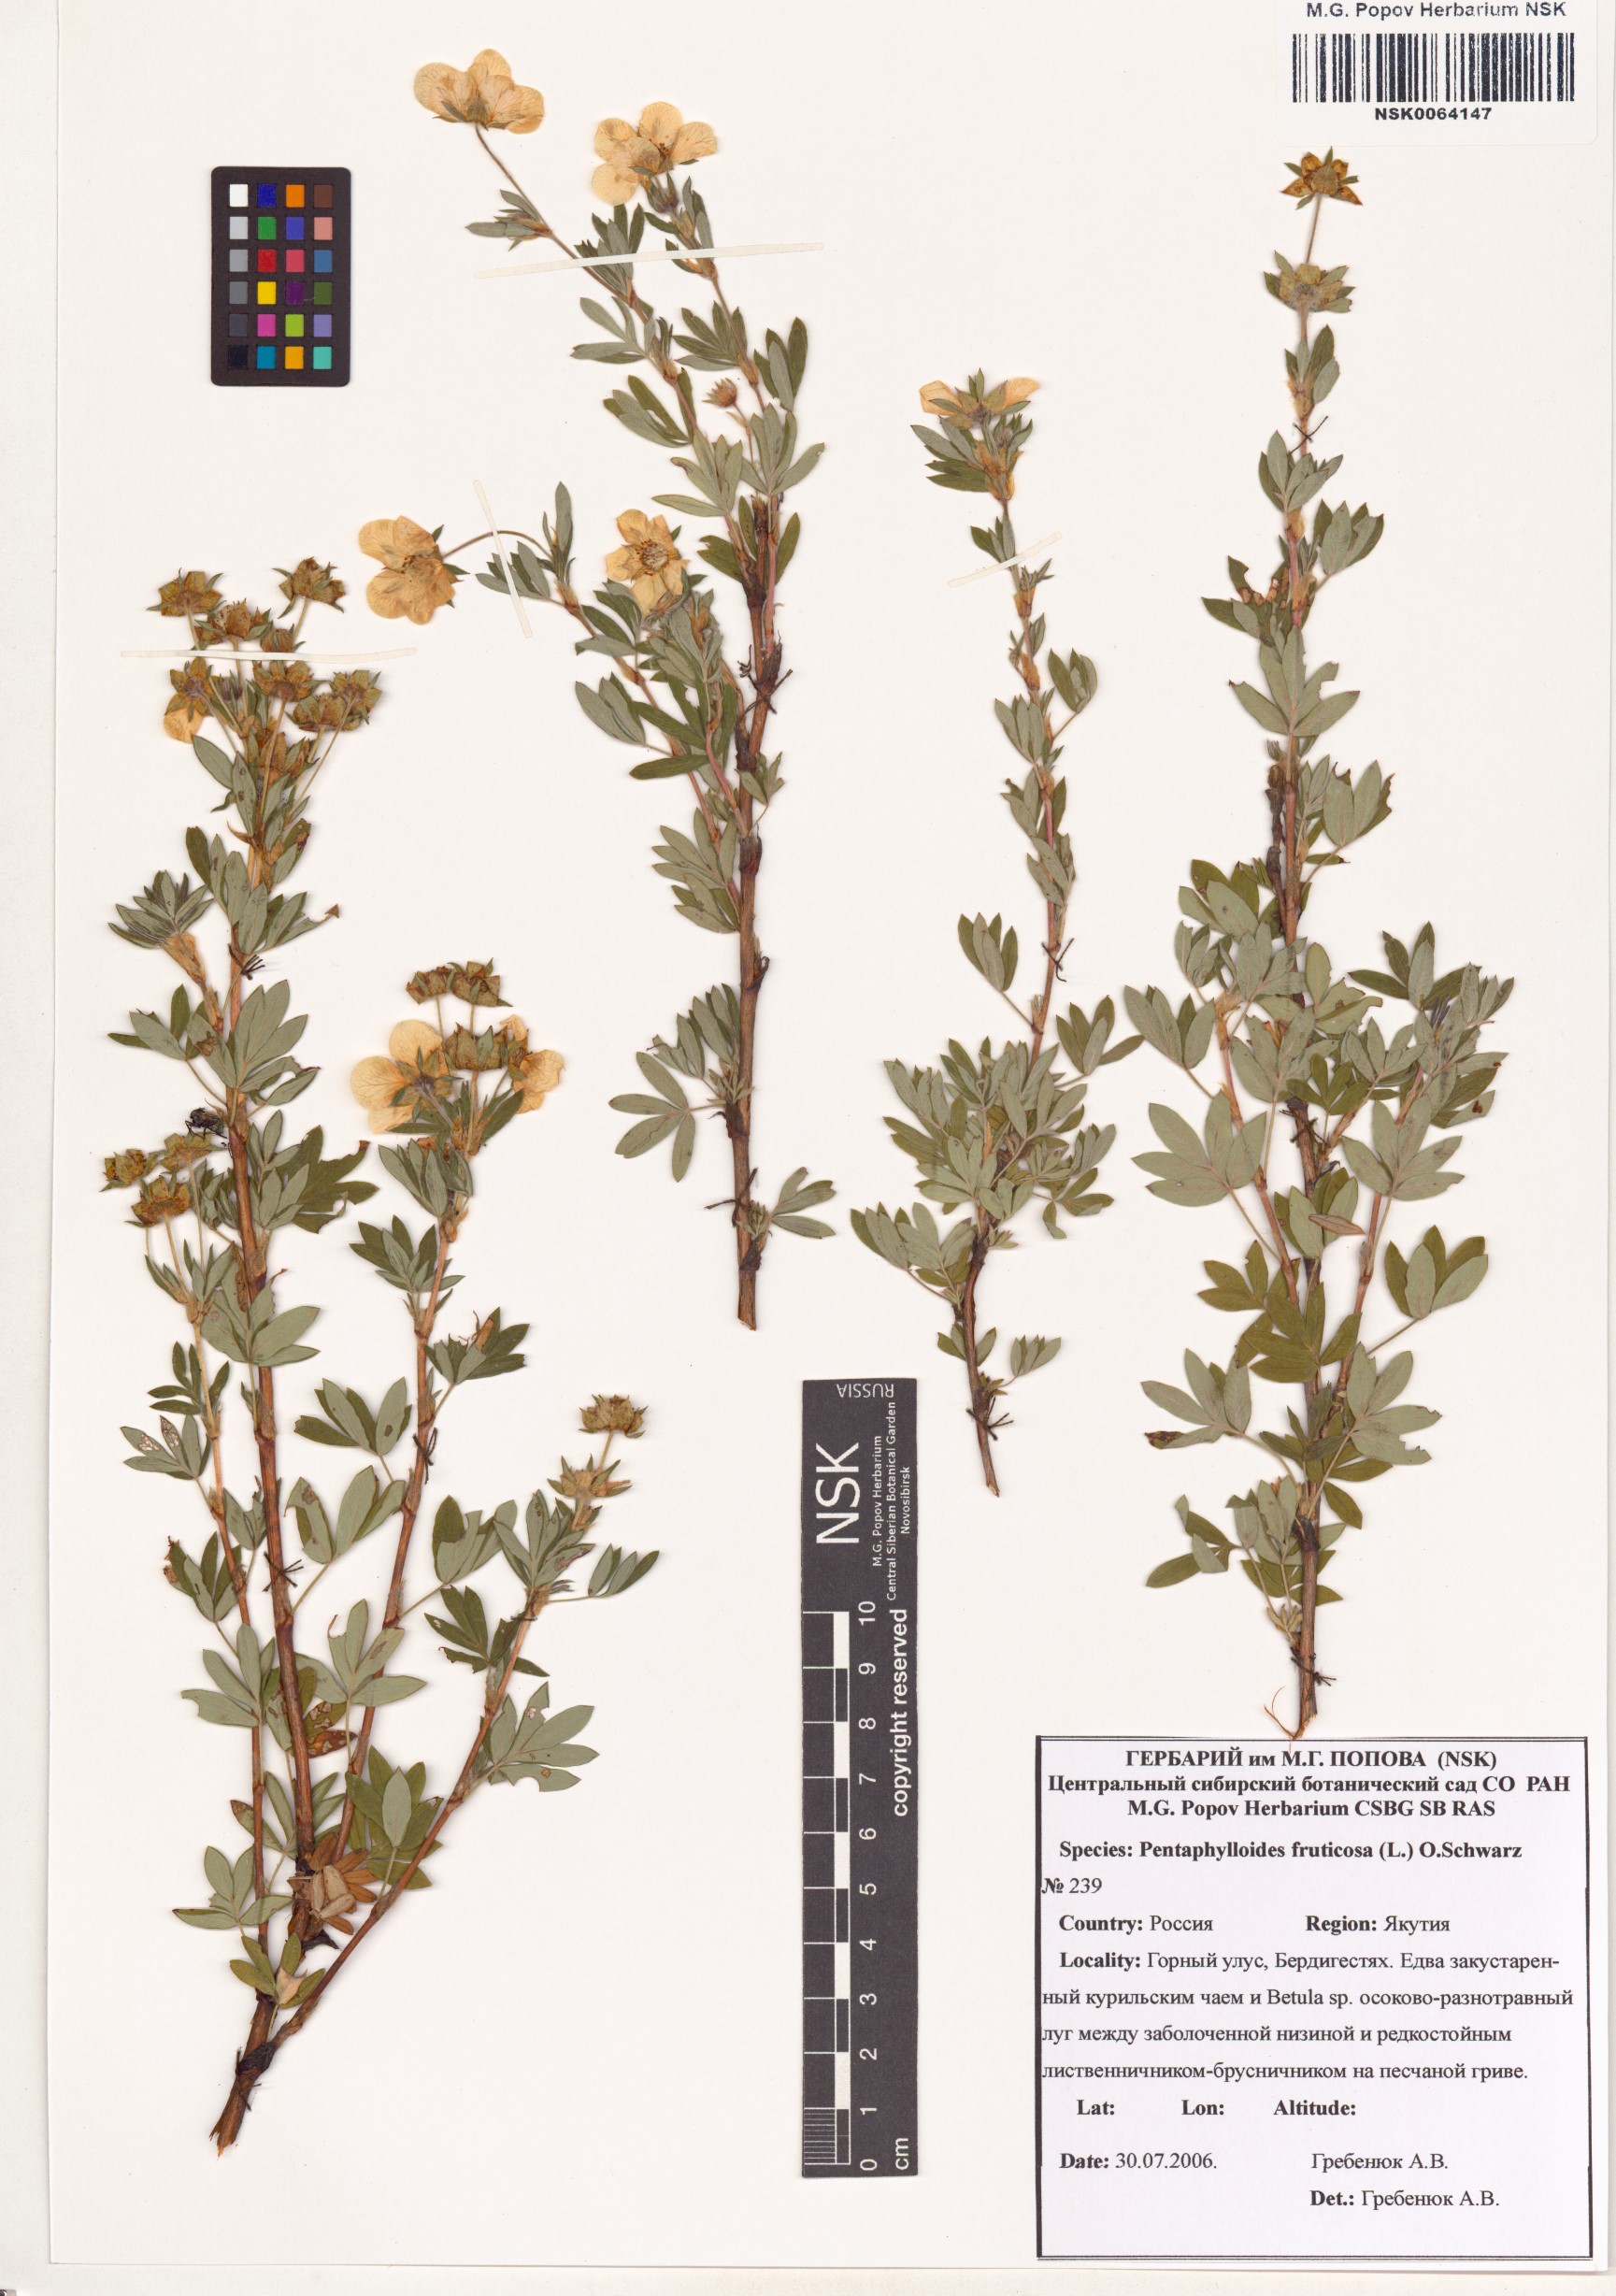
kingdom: Plantae
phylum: Tracheophyta
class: Magnoliopsida
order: Rosales
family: Rosaceae
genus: Dasiphora
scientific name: Dasiphora fruticosa
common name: Shrubby cinquefoil
